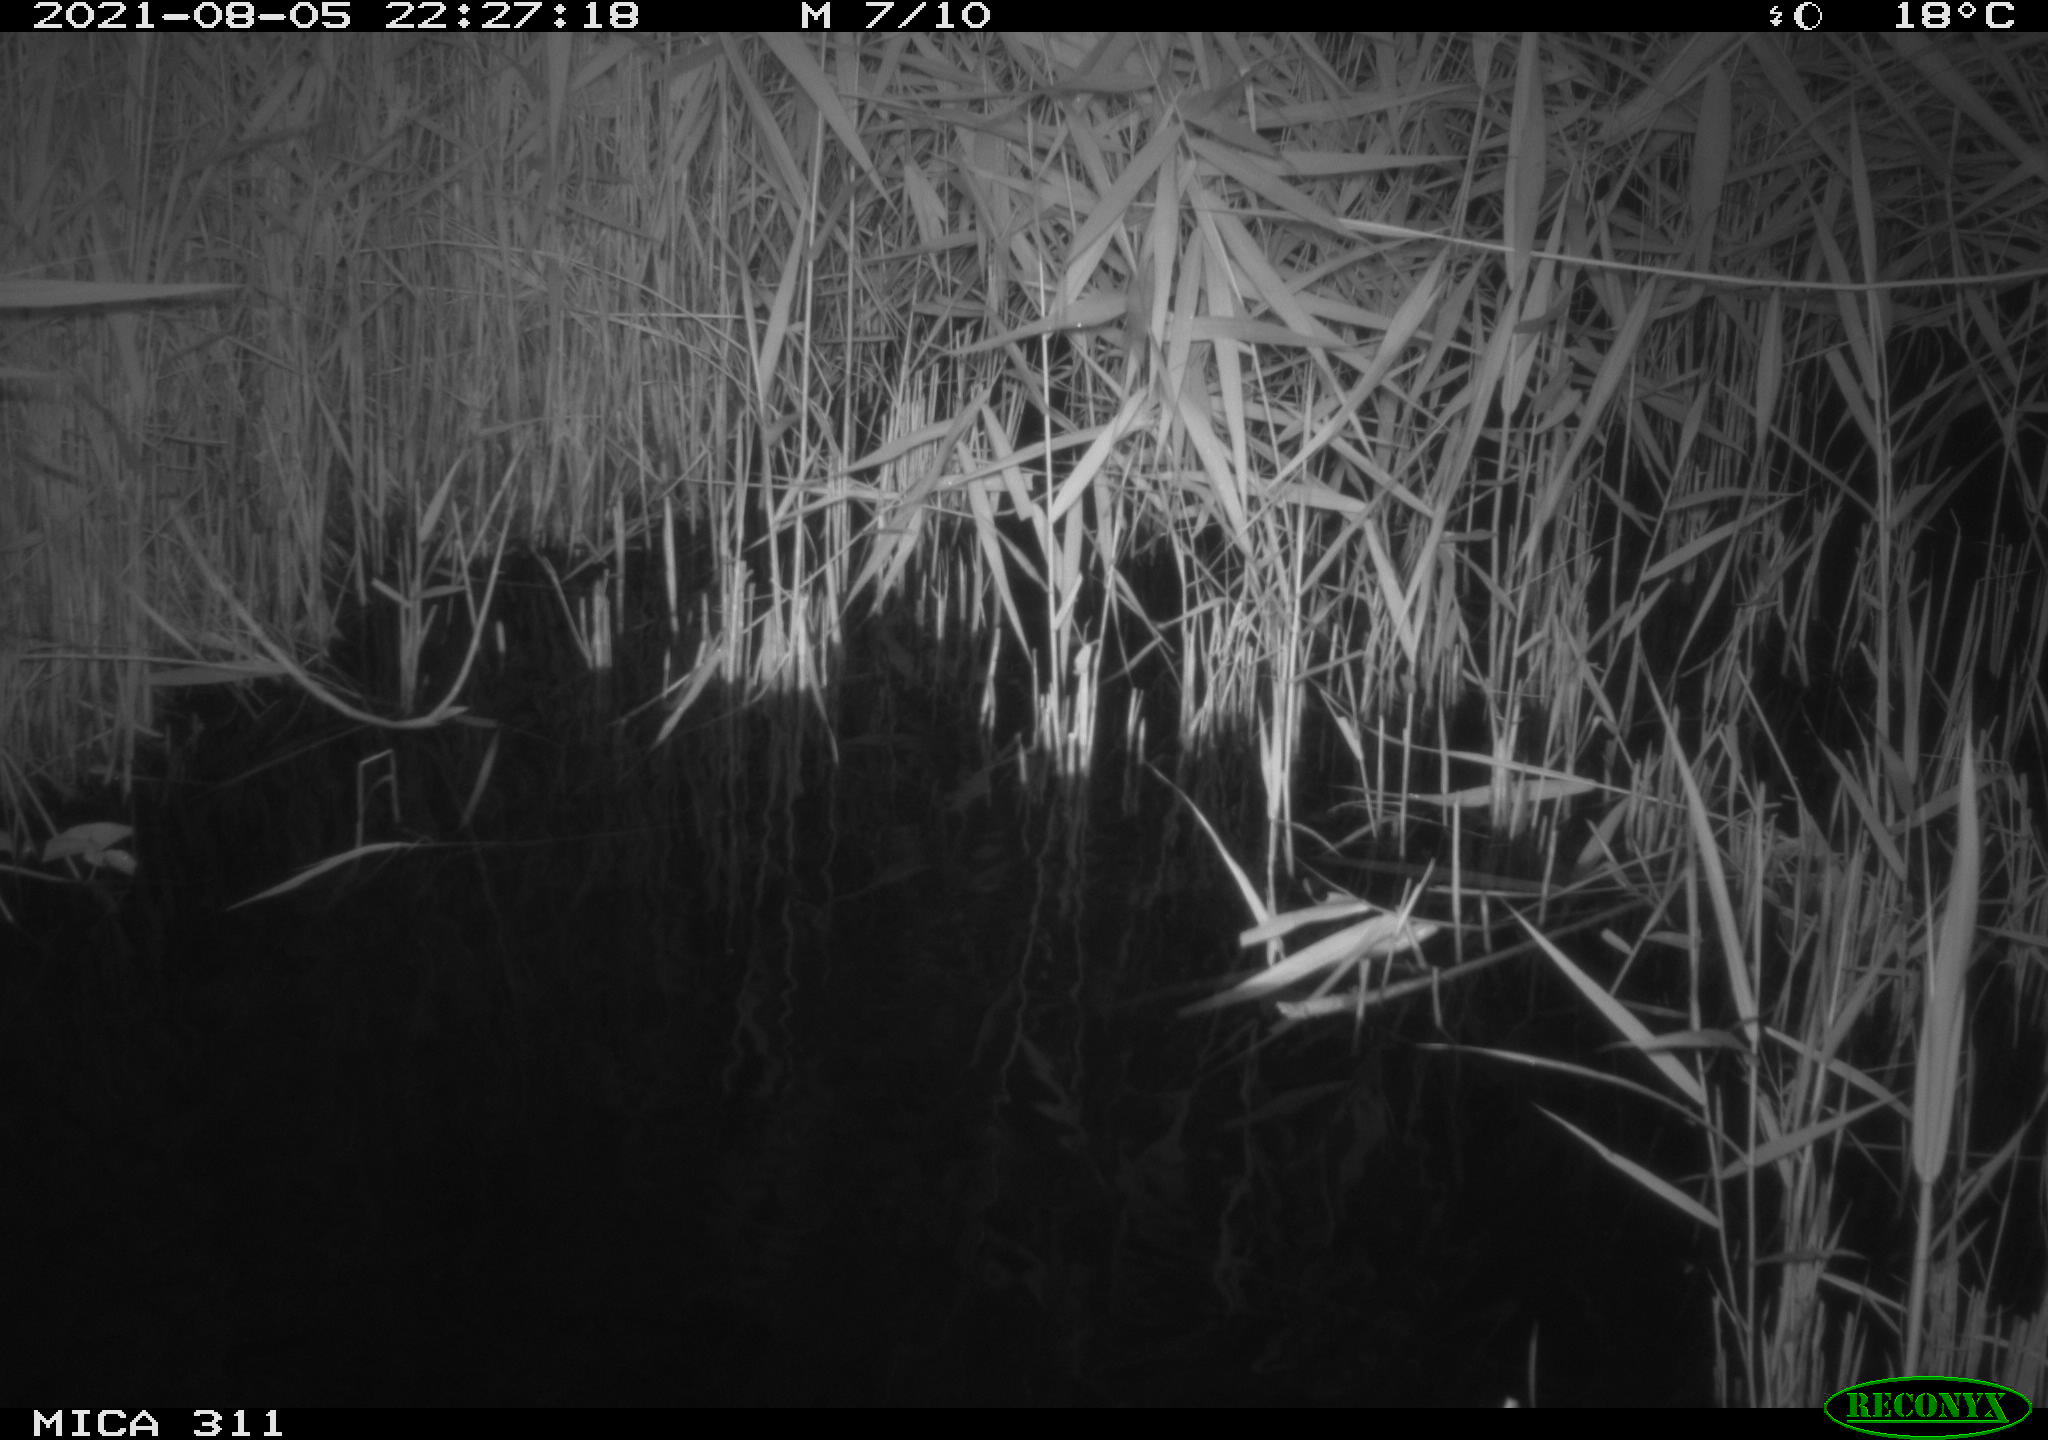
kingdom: Animalia
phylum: Chordata
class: Mammalia
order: Rodentia
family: Muridae
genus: Rattus
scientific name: Rattus norvegicus
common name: Brown rat
